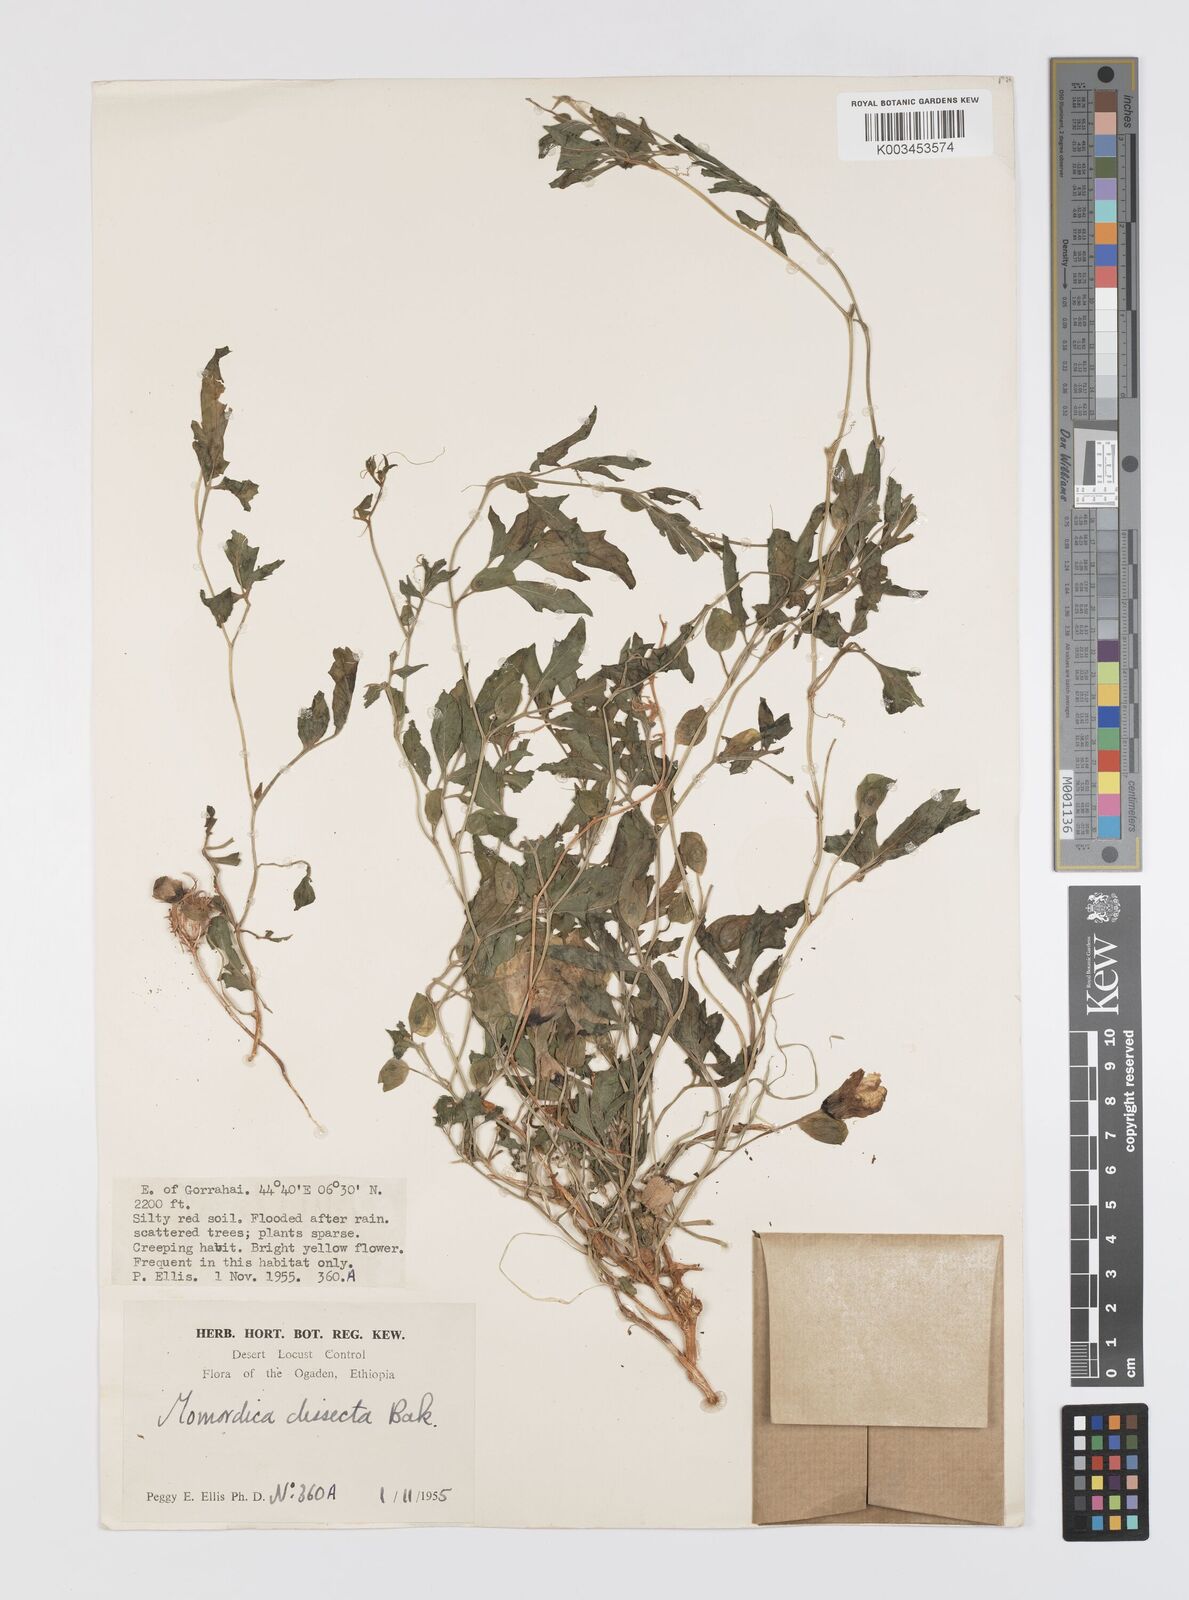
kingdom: Plantae
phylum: Tracheophyta
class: Magnoliopsida
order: Cucurbitales
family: Cucurbitaceae
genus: Momordica
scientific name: Momordica dissecta
